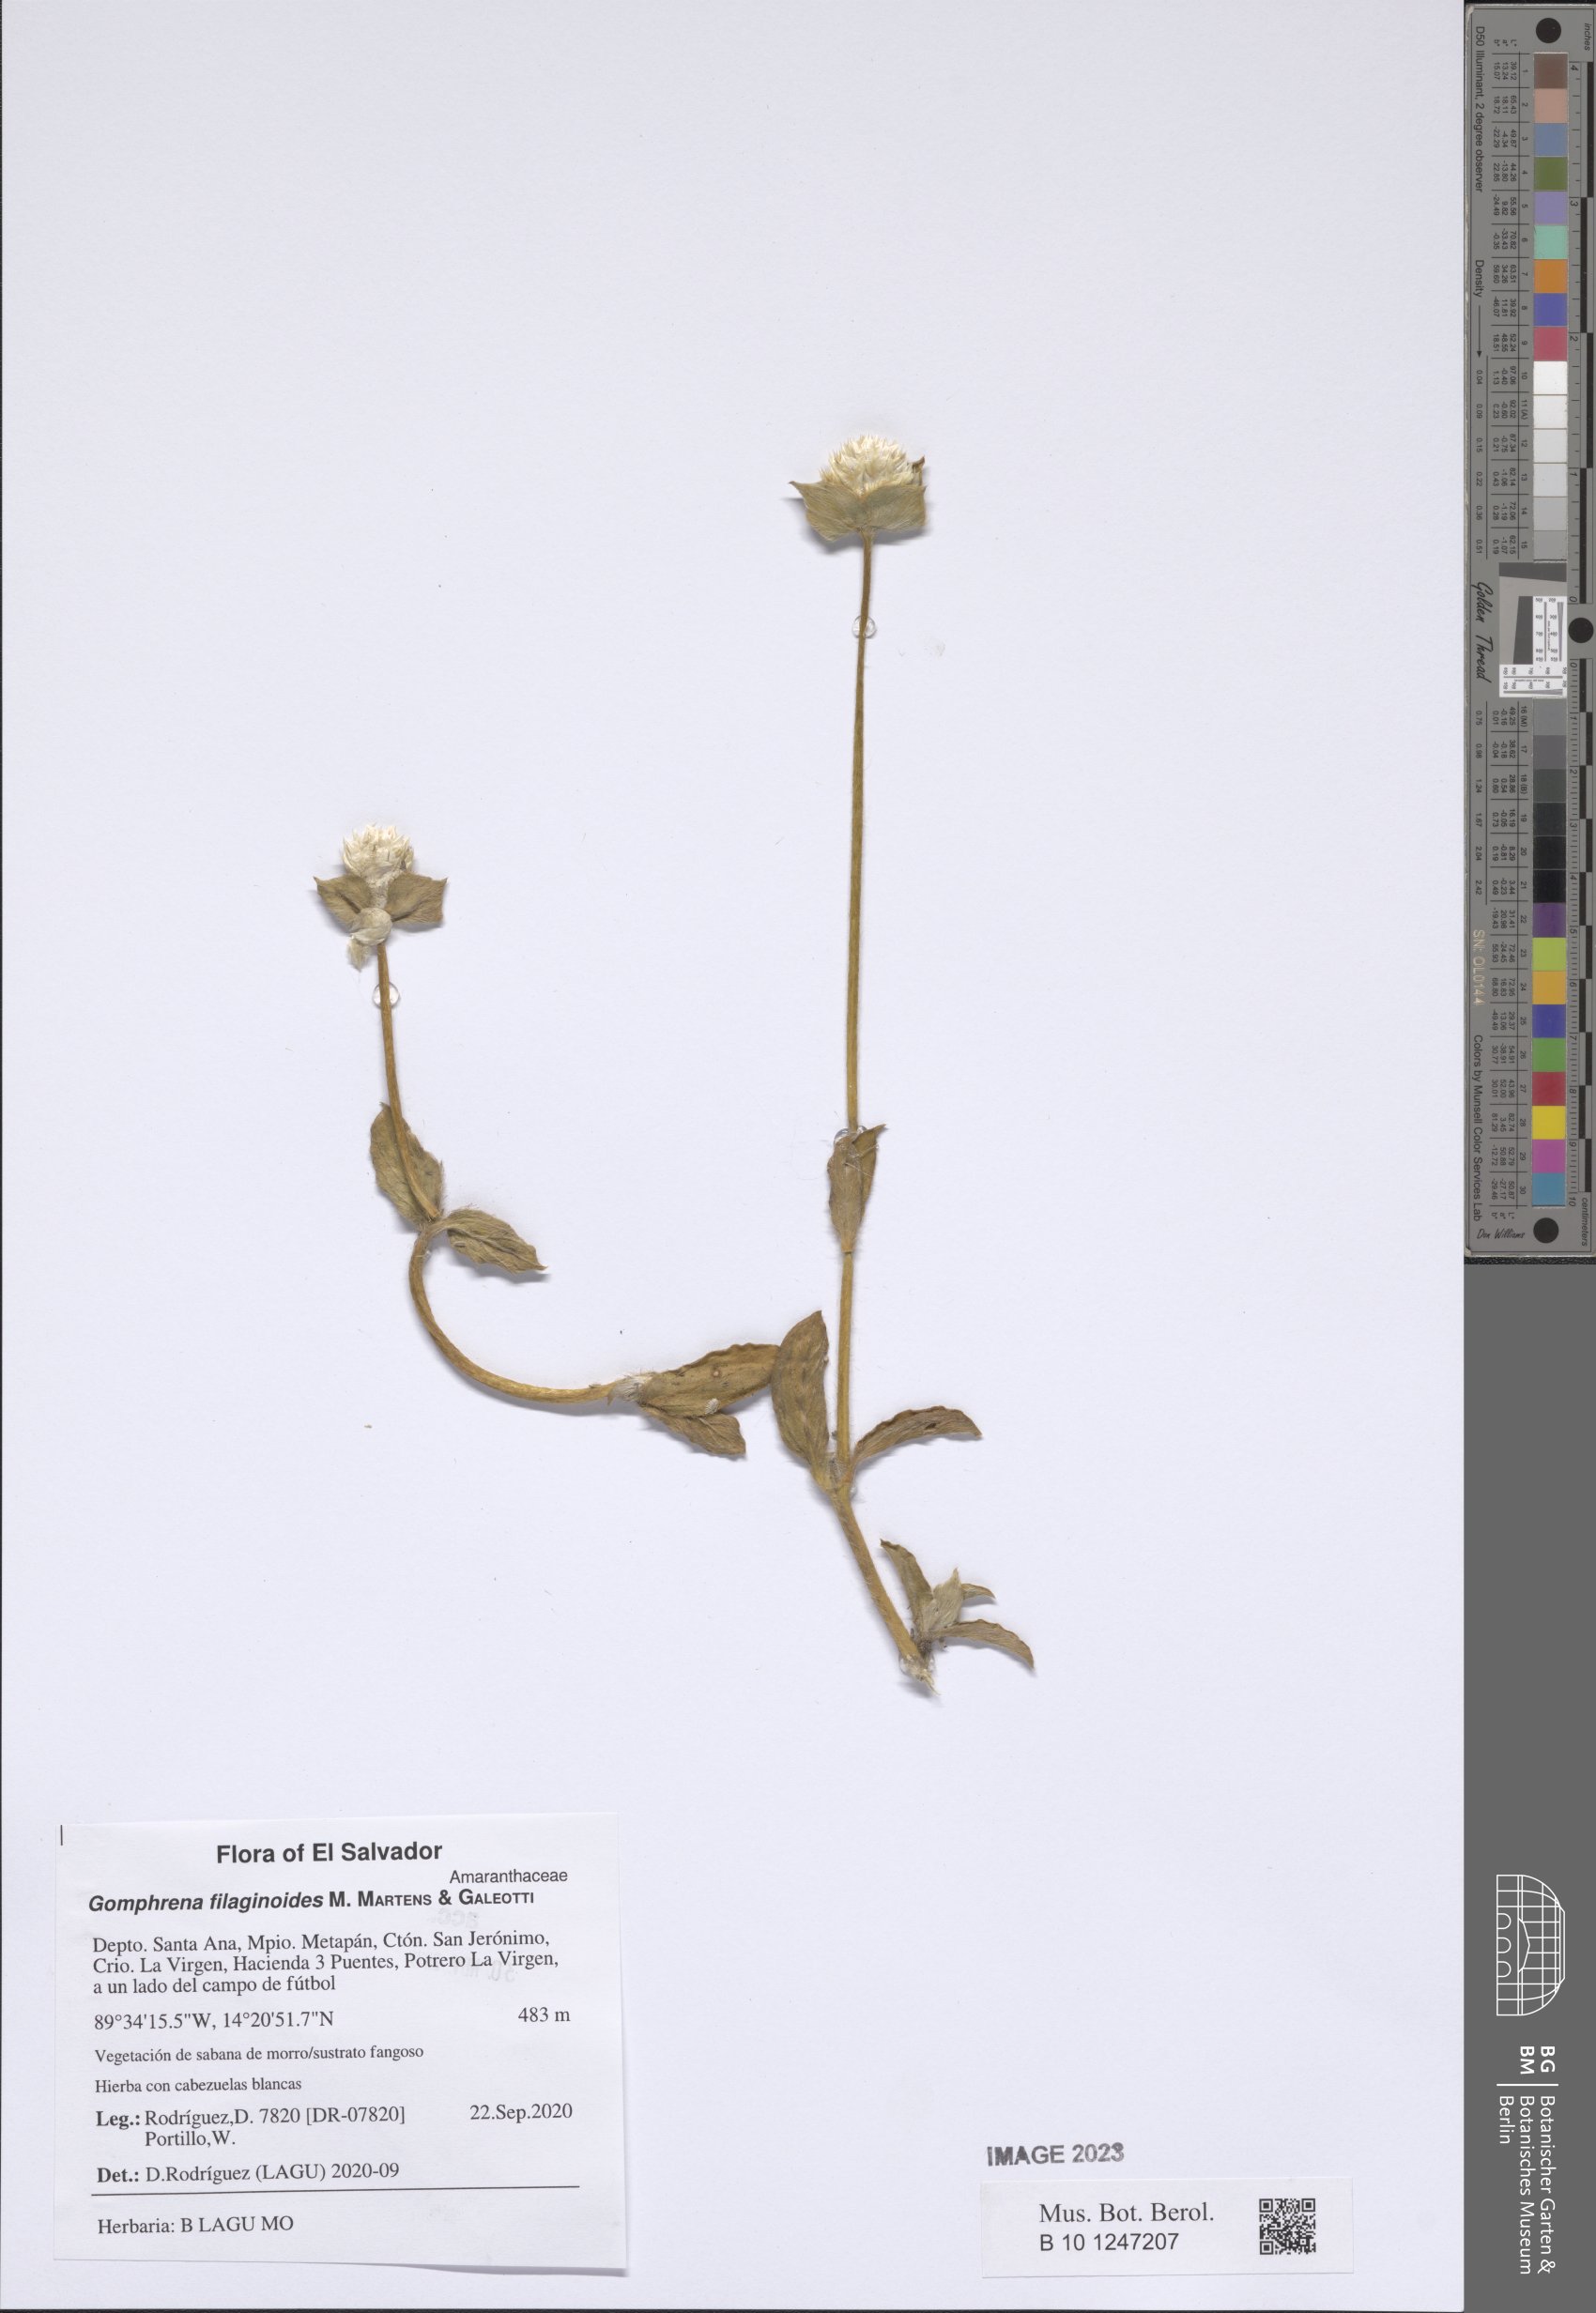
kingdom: Plantae
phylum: Tracheophyta
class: Magnoliopsida
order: Caryophyllales
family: Amaranthaceae
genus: Gomphrena
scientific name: Gomphrena filaginoides
